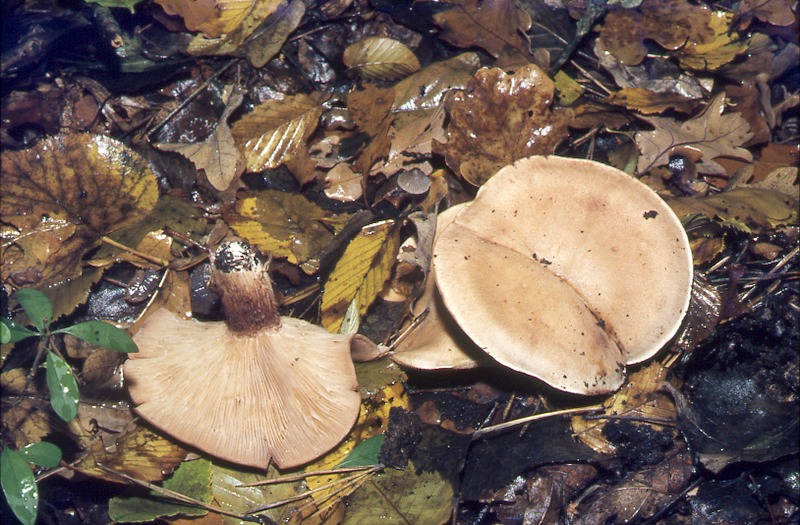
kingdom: Fungi
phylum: Basidiomycota
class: Agaricomycetes
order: Agaricales
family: Pseudoclitocybaceae
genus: Clitopaxillus
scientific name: Clitopaxillus alexandri
